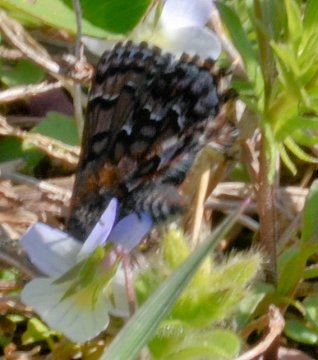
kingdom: Animalia
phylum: Arthropoda
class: Insecta
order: Lepidoptera
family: Lycaenidae
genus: Incisalia
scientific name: Incisalia niphon
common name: Eastern Pine Elfin
